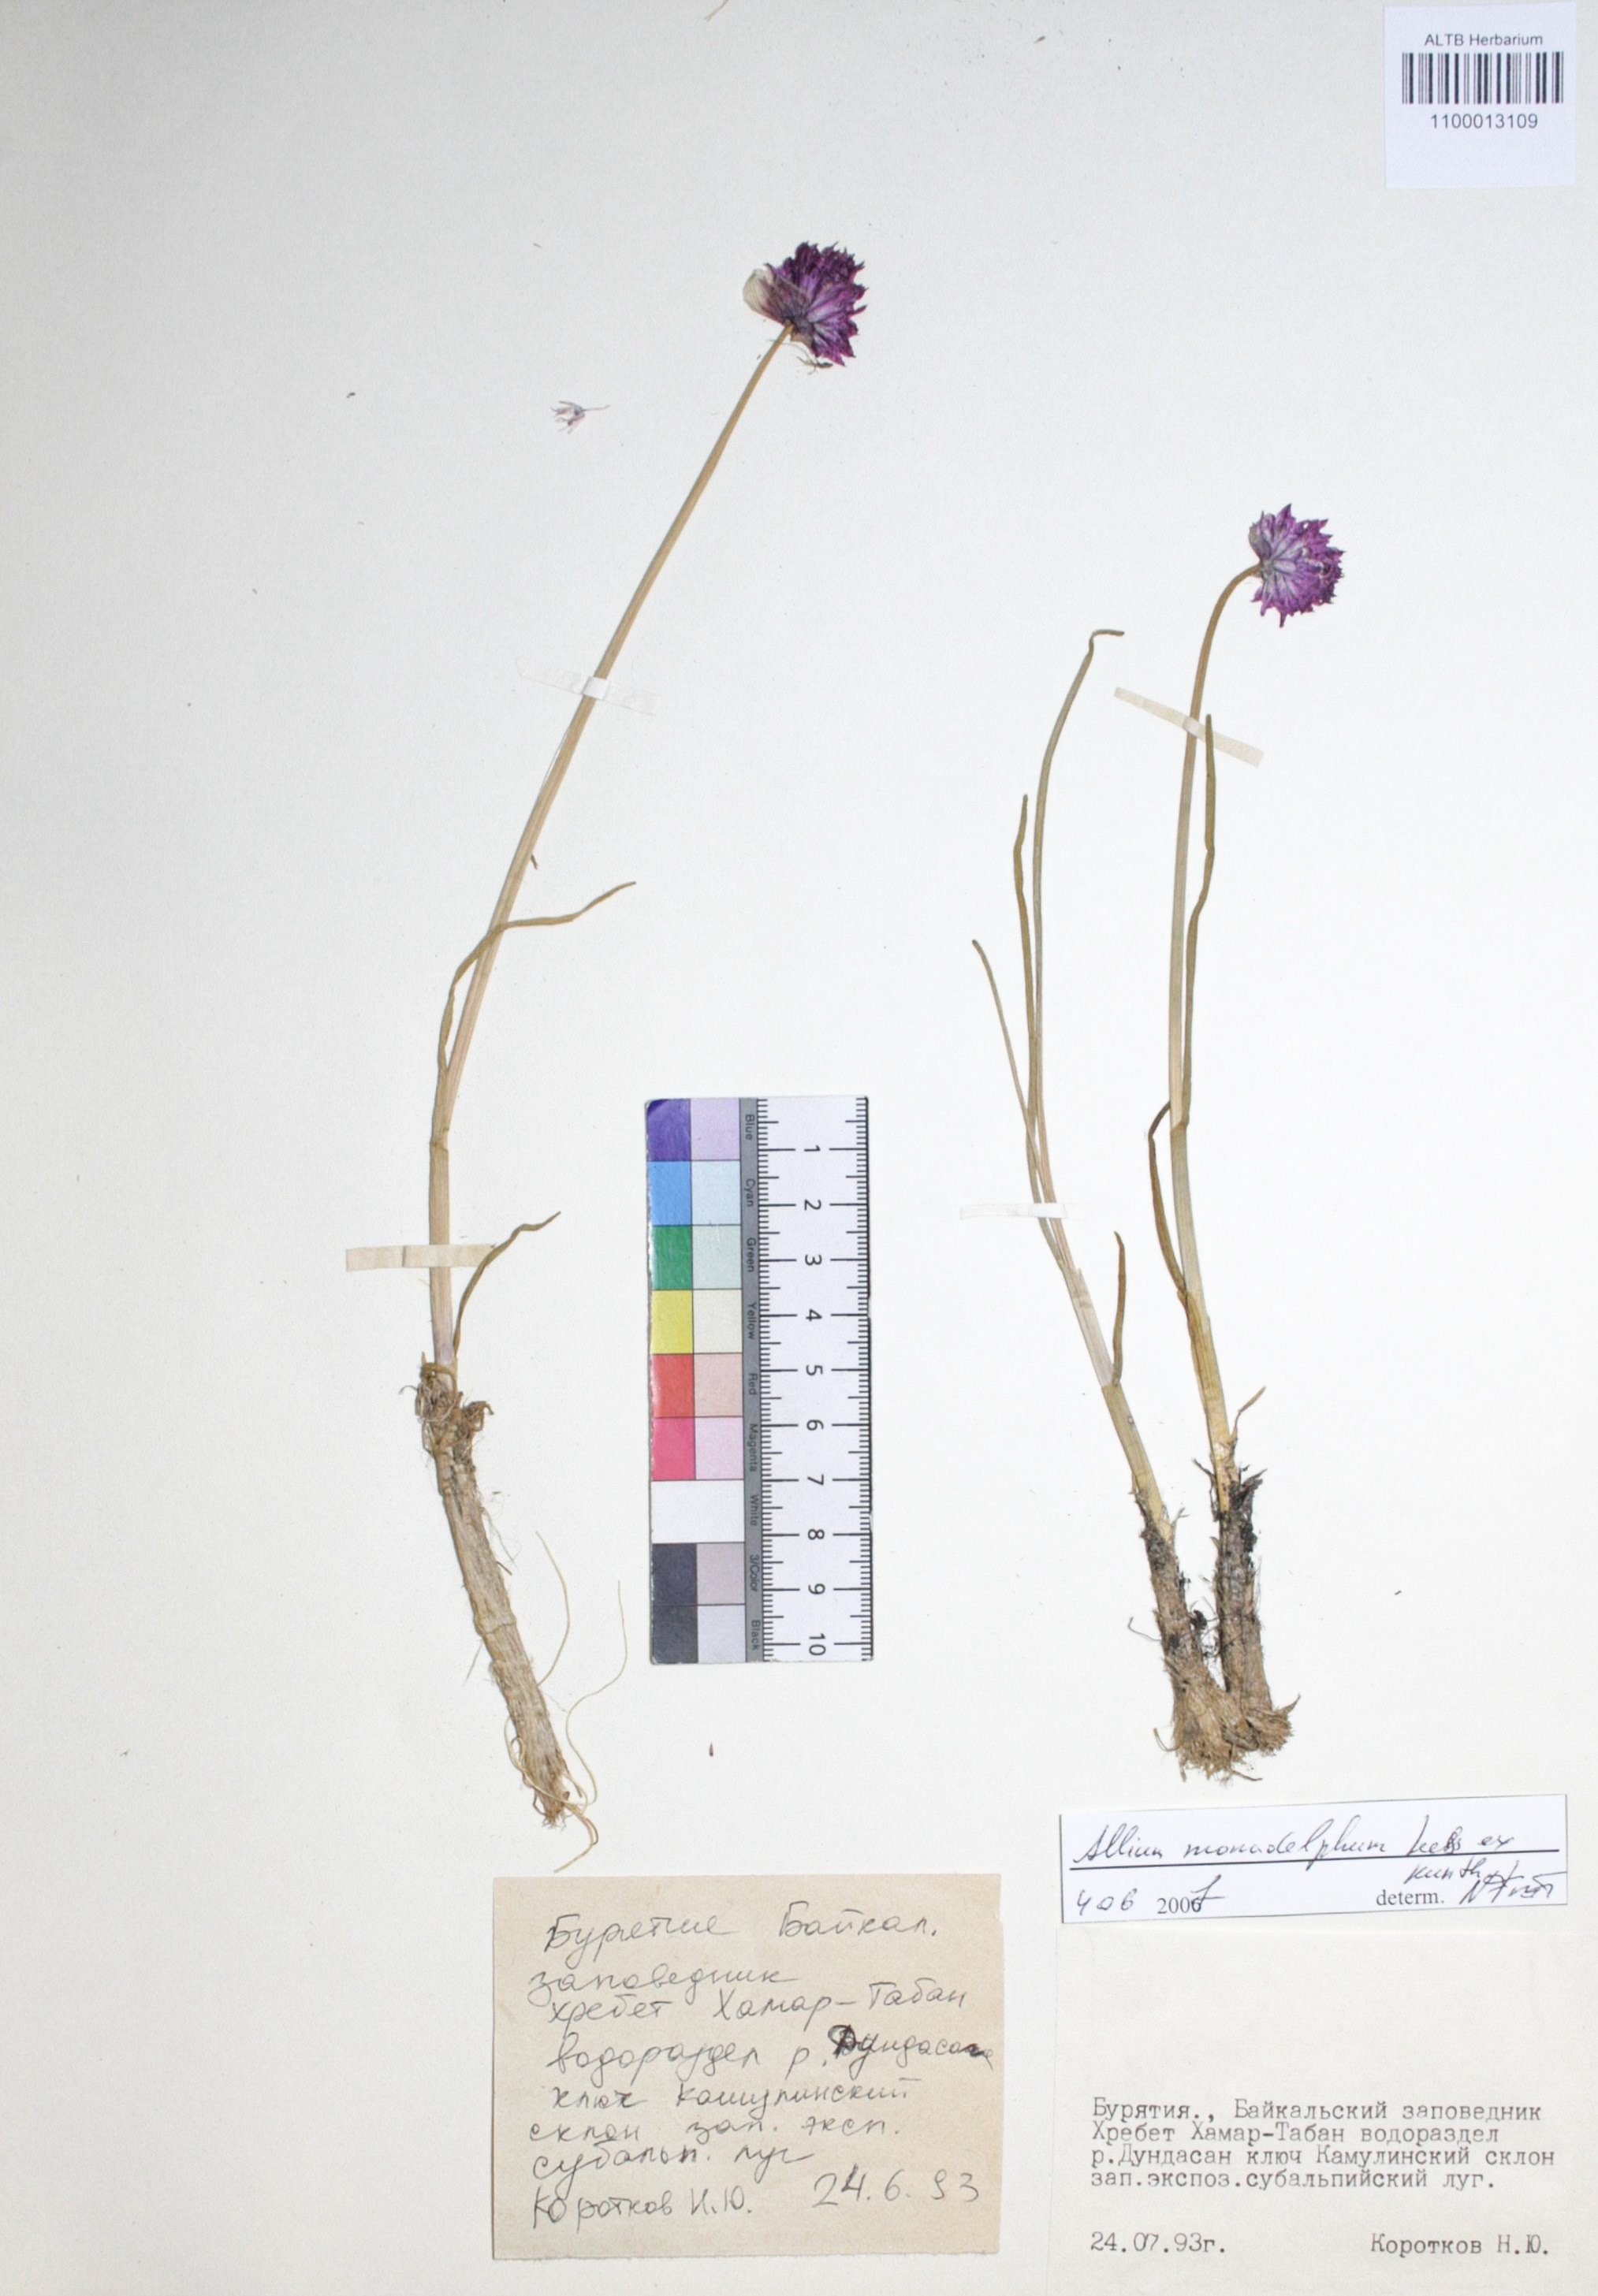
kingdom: Plantae
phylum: Tracheophyta
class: Liliopsida
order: Asparagales
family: Amaryllidaceae
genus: Allium
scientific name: Allium atrosanguineum
